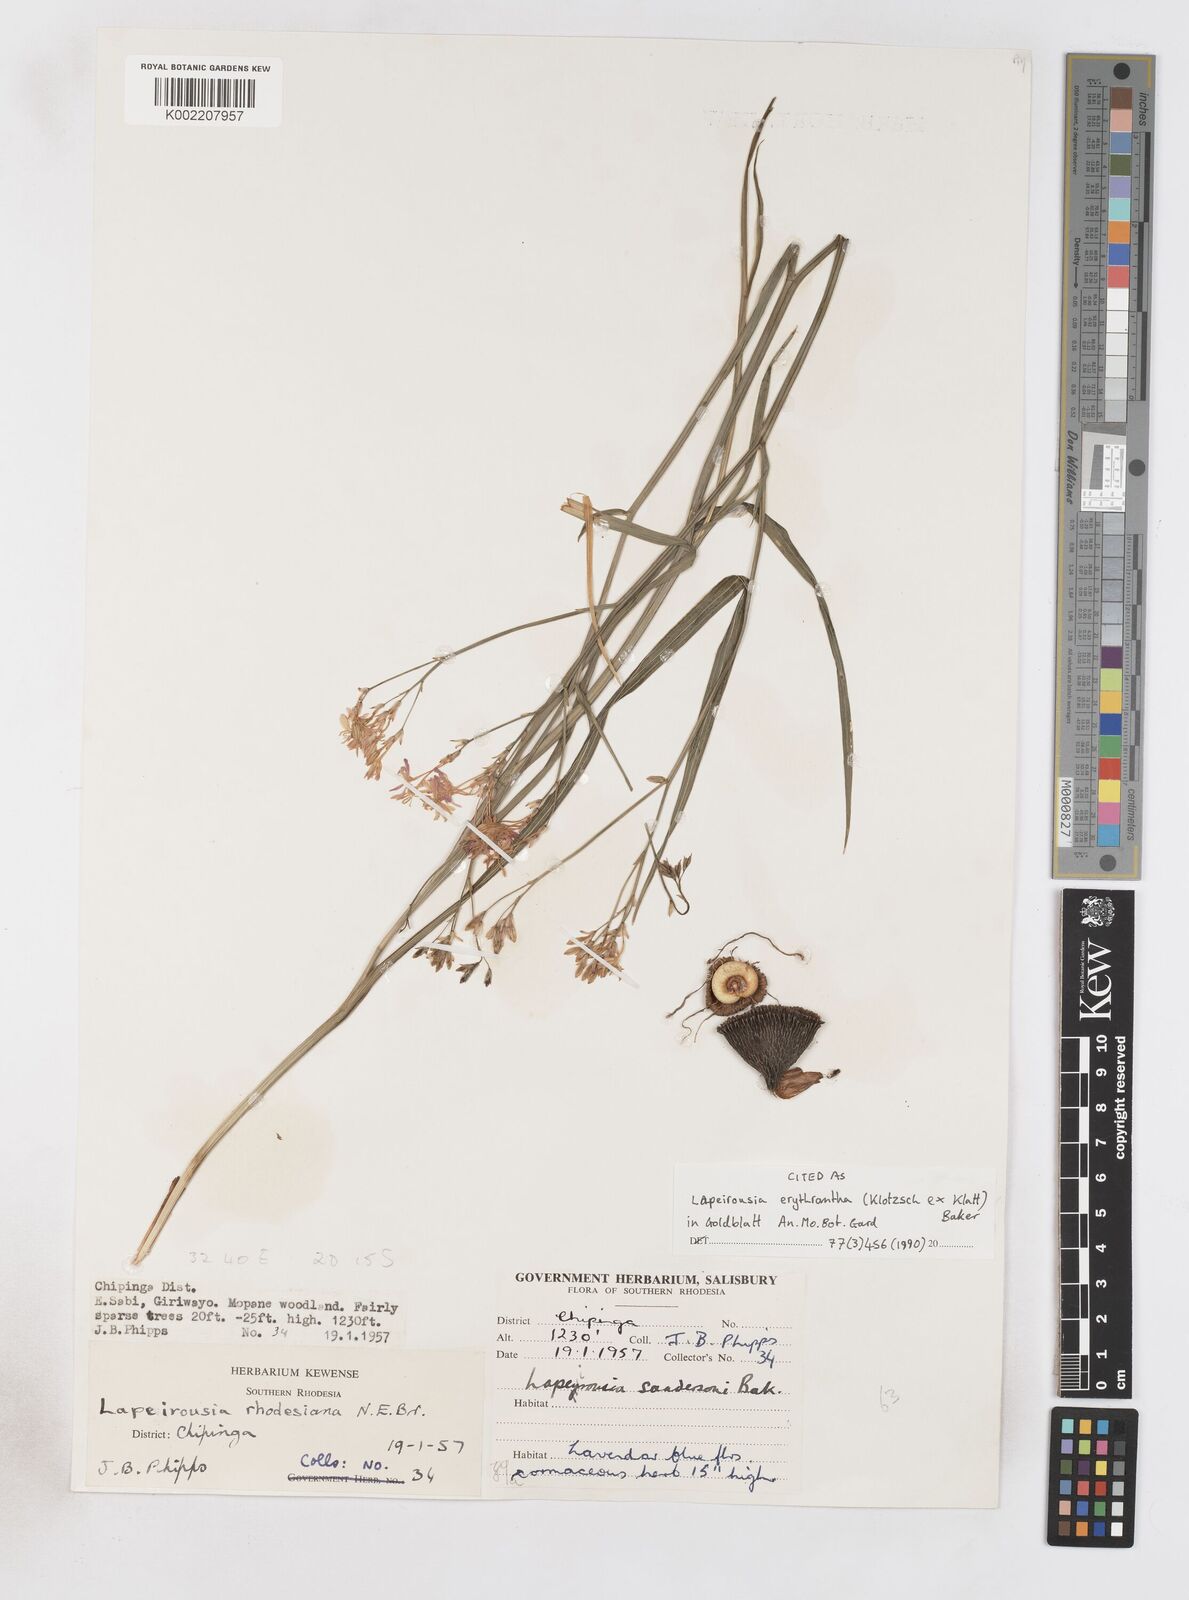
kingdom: Plantae
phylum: Tracheophyta
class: Liliopsida
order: Asparagales
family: Iridaceae
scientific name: Iridaceae
